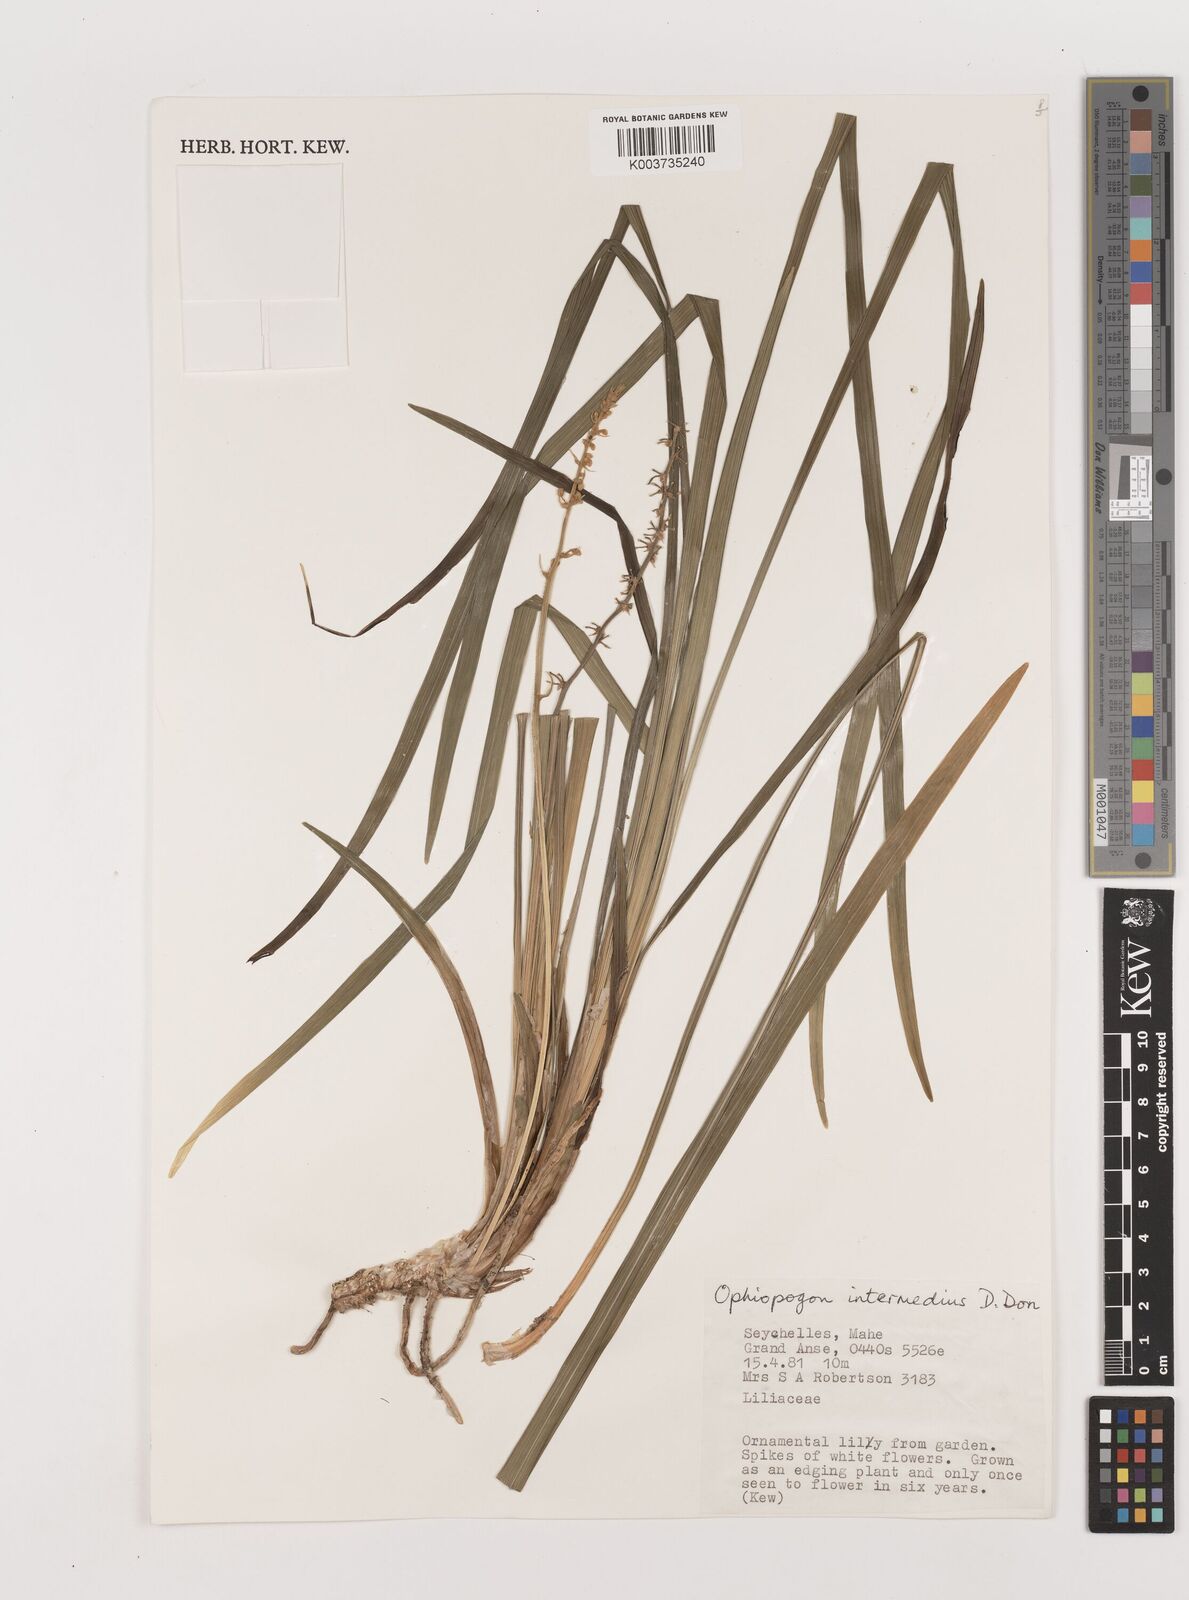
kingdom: Plantae
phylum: Tracheophyta
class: Liliopsida
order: Asparagales
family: Asparagaceae
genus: Ophiopogon
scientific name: Ophiopogon intermedius
